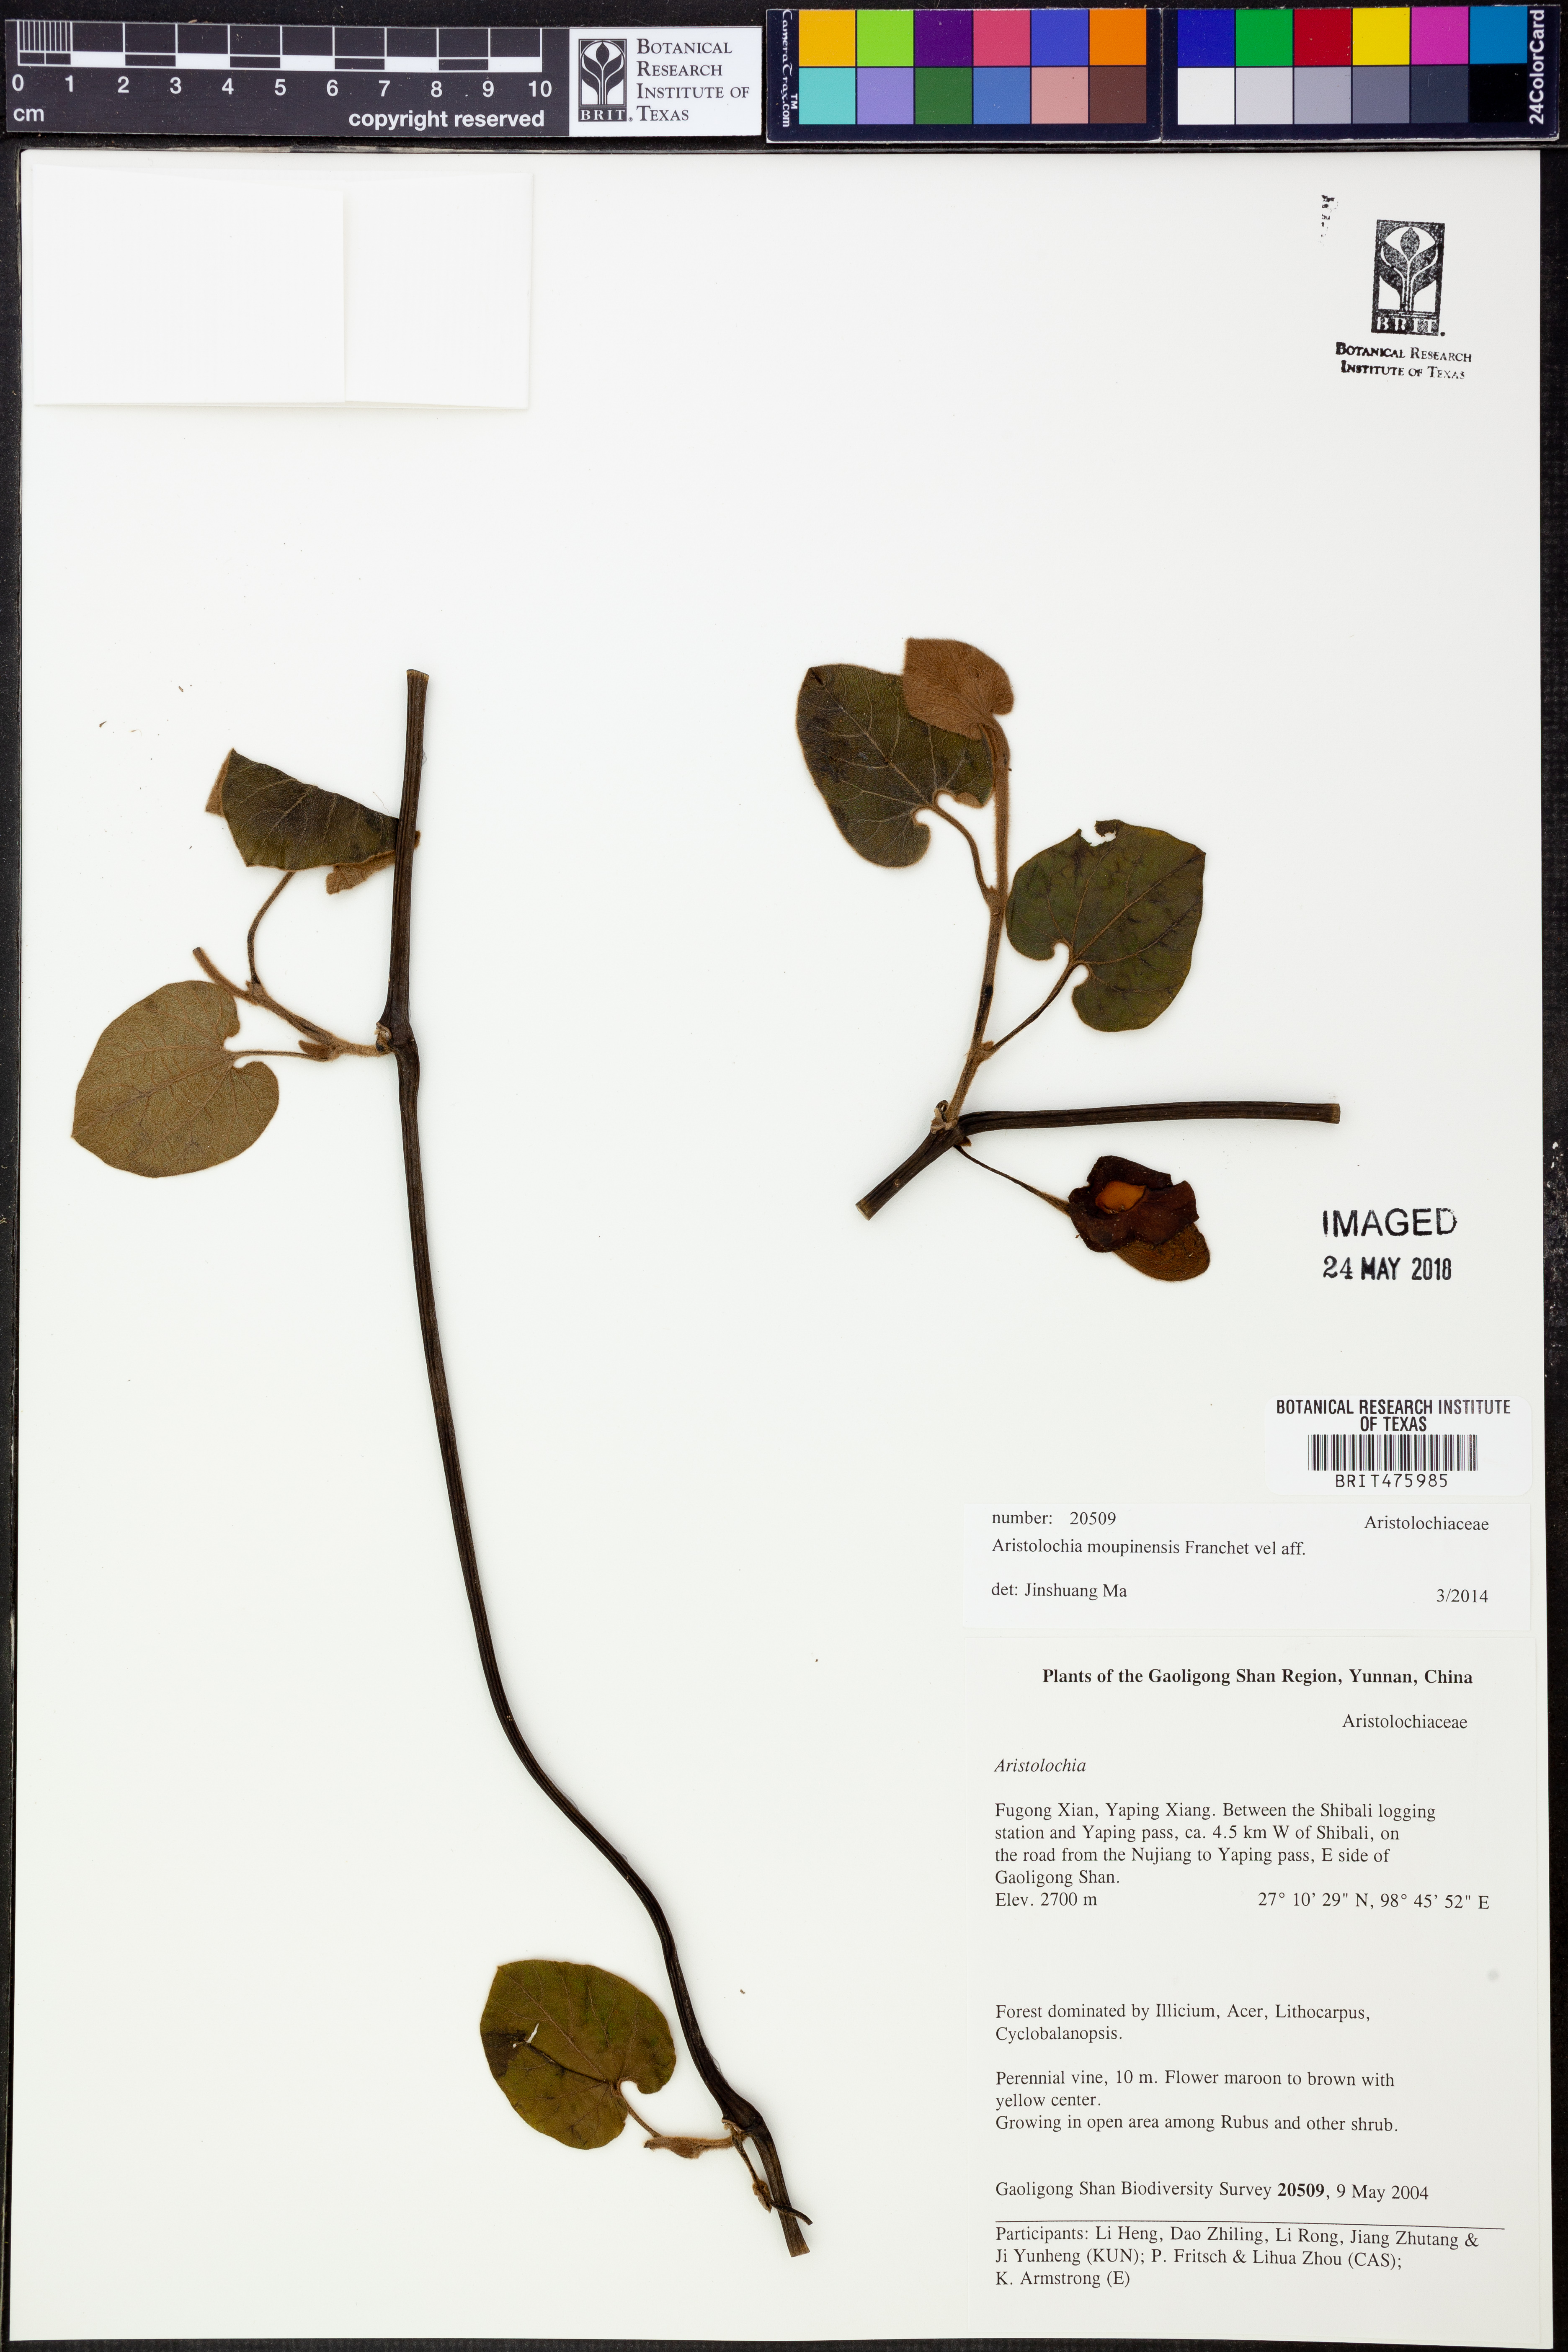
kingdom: Plantae
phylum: Tracheophyta
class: Magnoliopsida
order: Piperales
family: Aristolochiaceae
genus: Isotrema
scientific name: Isotrema moupinense
